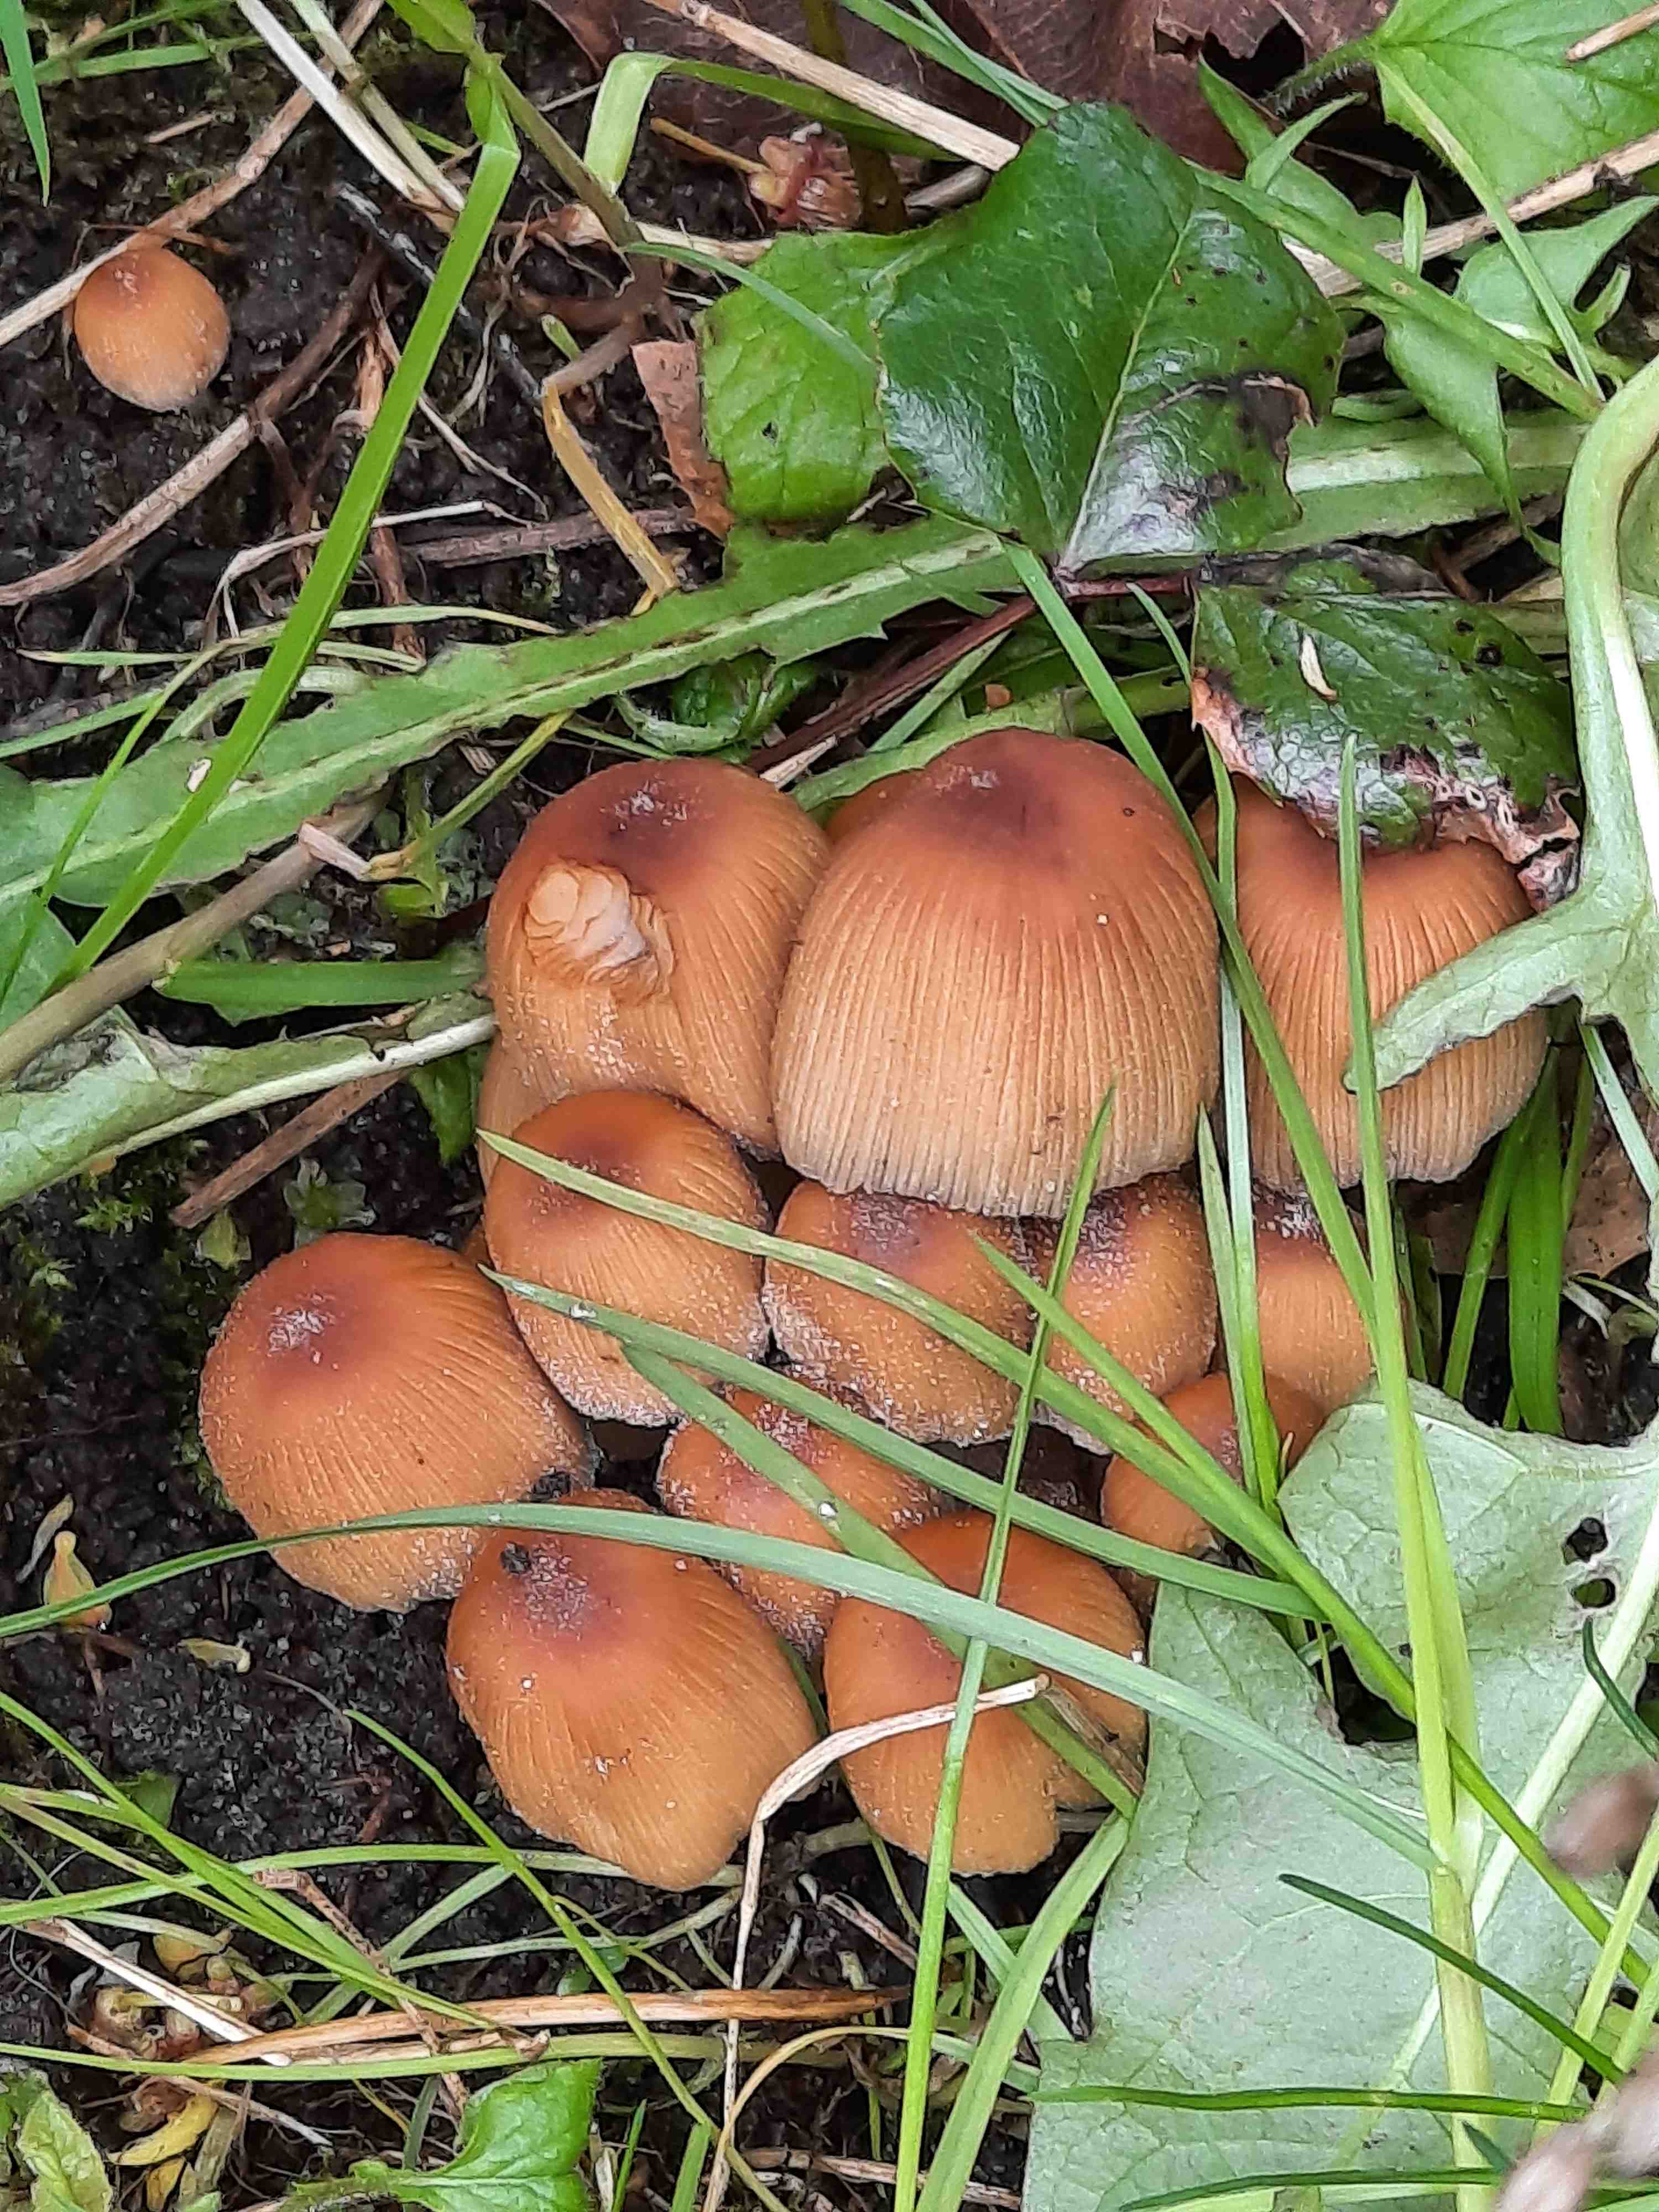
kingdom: Fungi
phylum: Basidiomycota
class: Agaricomycetes
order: Agaricales
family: Psathyrellaceae
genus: Coprinellus
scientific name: Coprinellus micaceus
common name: glimmer-blækhat
